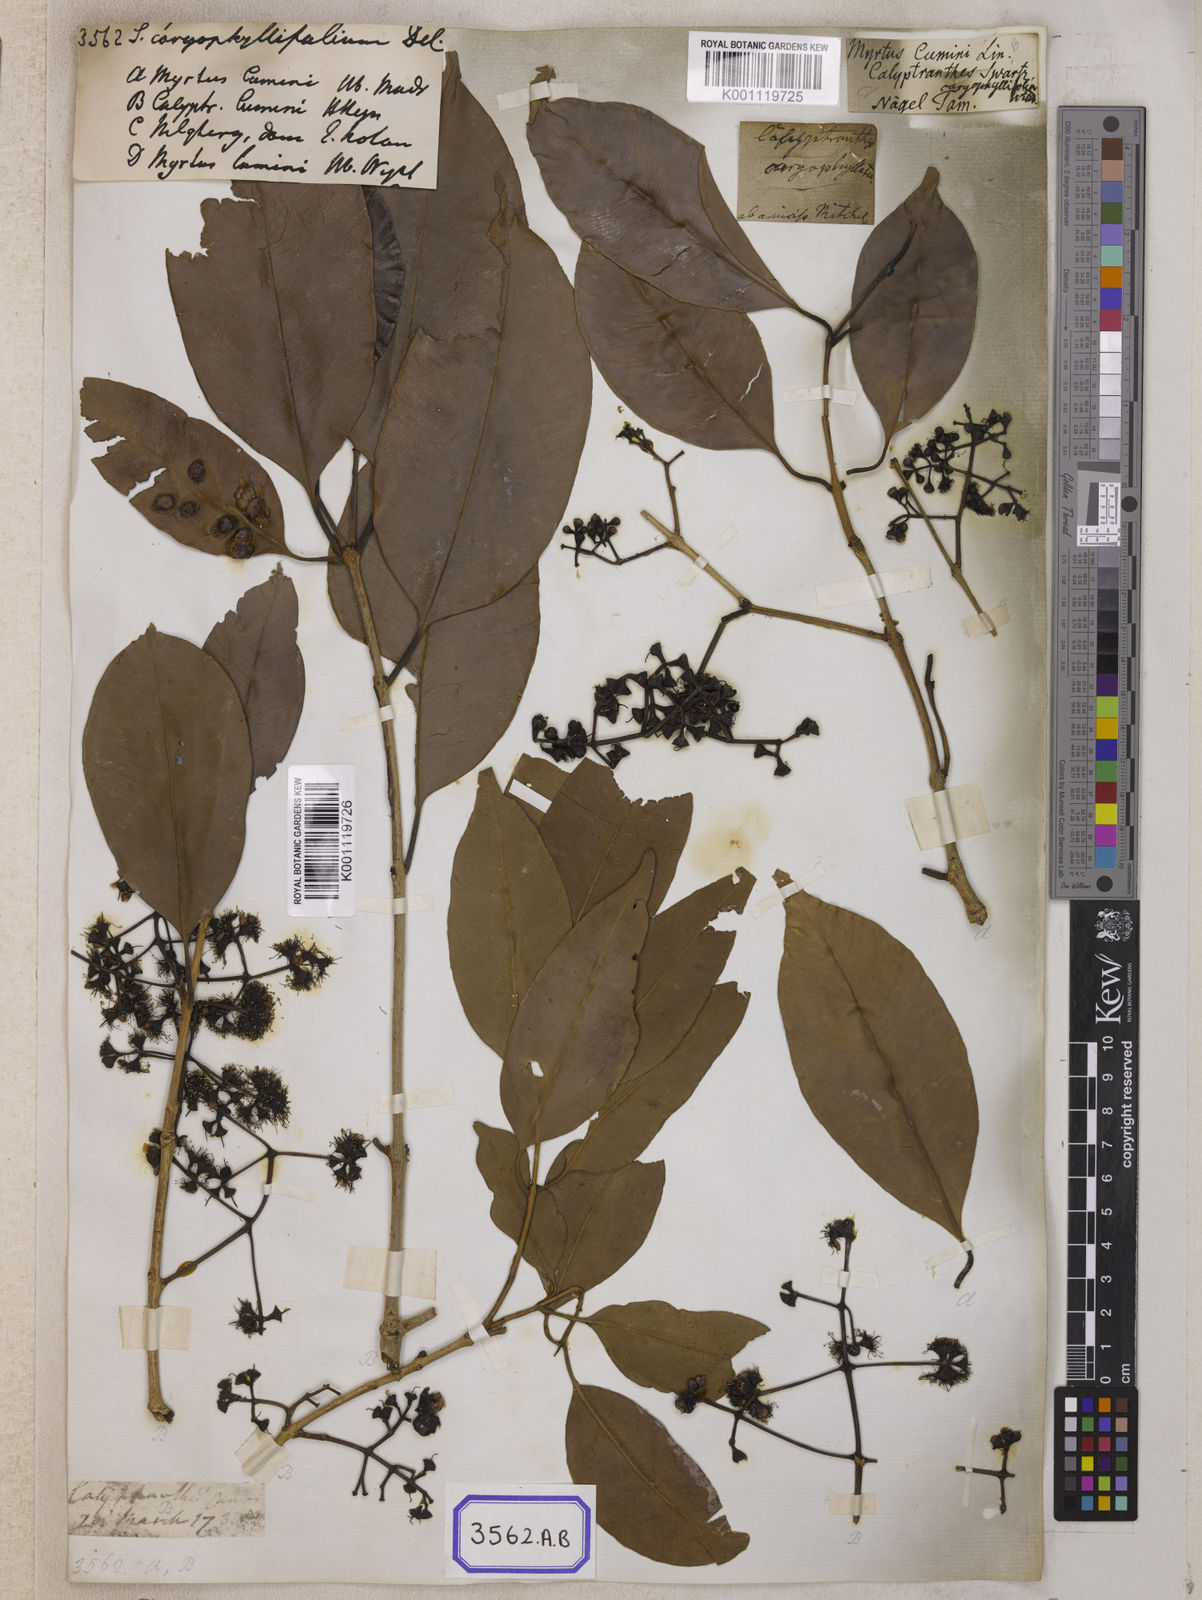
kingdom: Plantae
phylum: Tracheophyta
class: Magnoliopsida
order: Myrtales
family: Myrtaceae
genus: Syzygium
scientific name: Syzygium cumini
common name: Java plum
